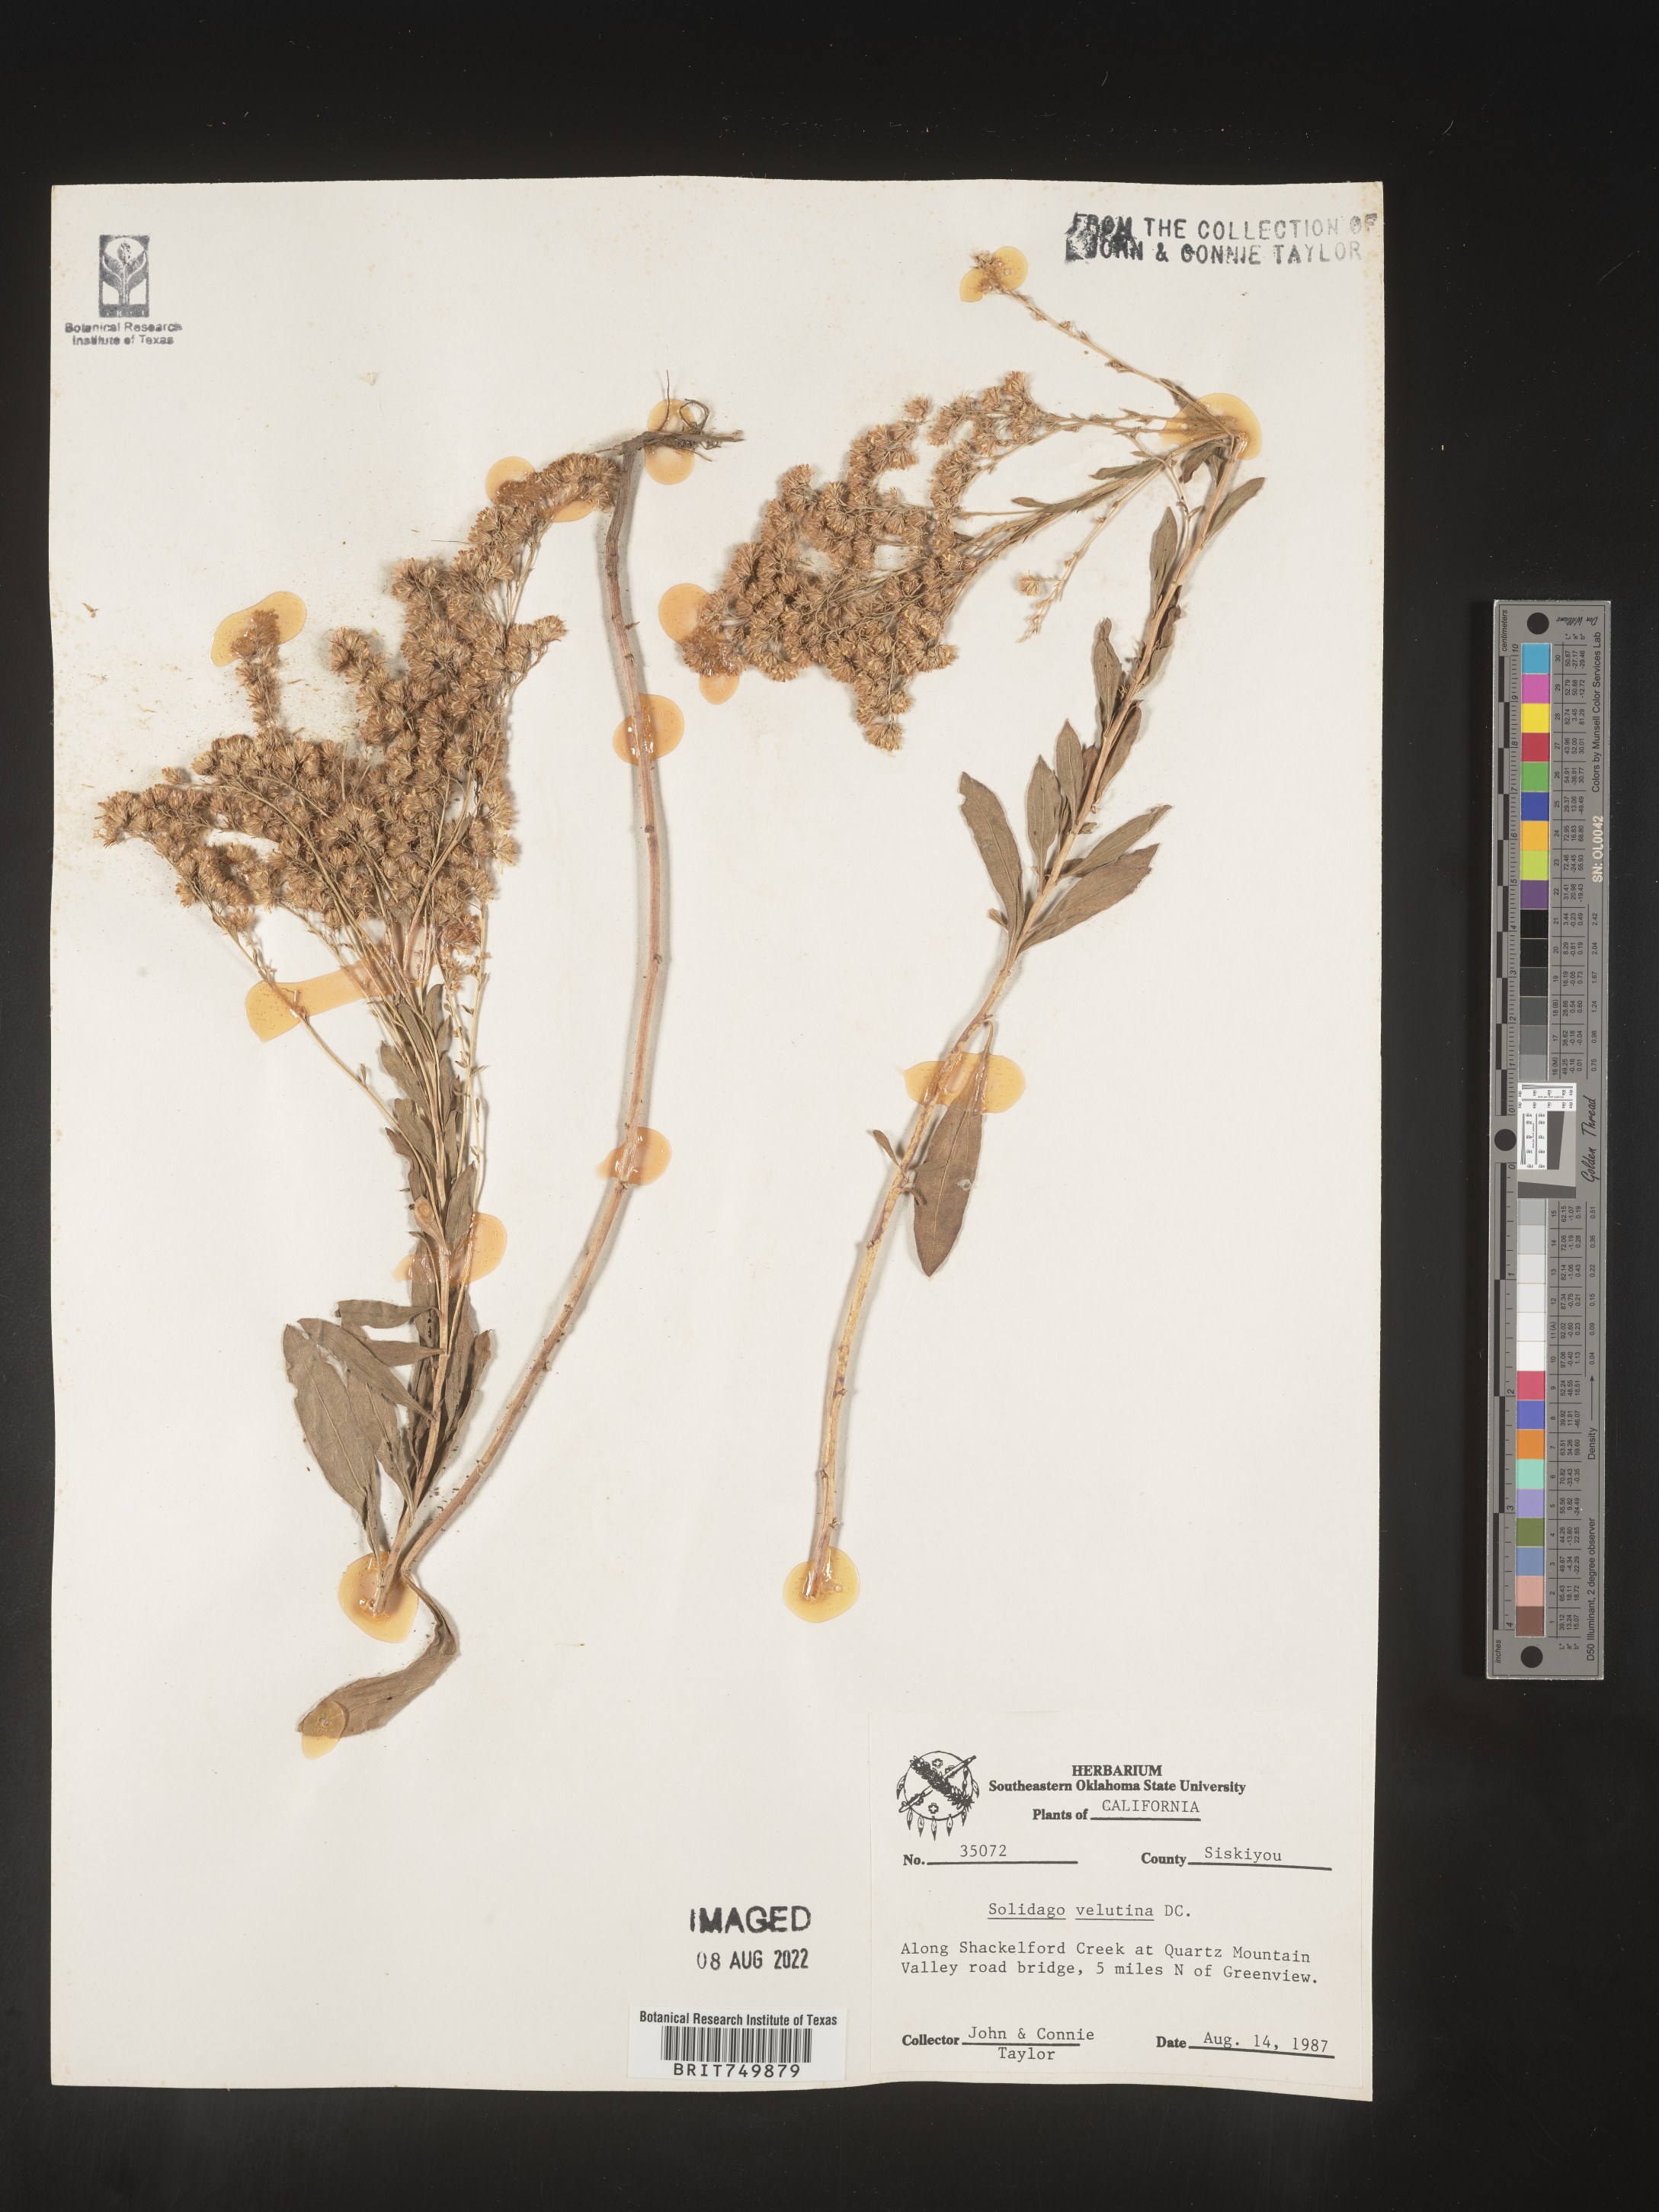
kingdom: Plantae
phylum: Tracheophyta
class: Magnoliopsida
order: Asterales
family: Asteraceae
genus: Solidago
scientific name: Solidago velutina
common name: Three-nerve goldenrod
